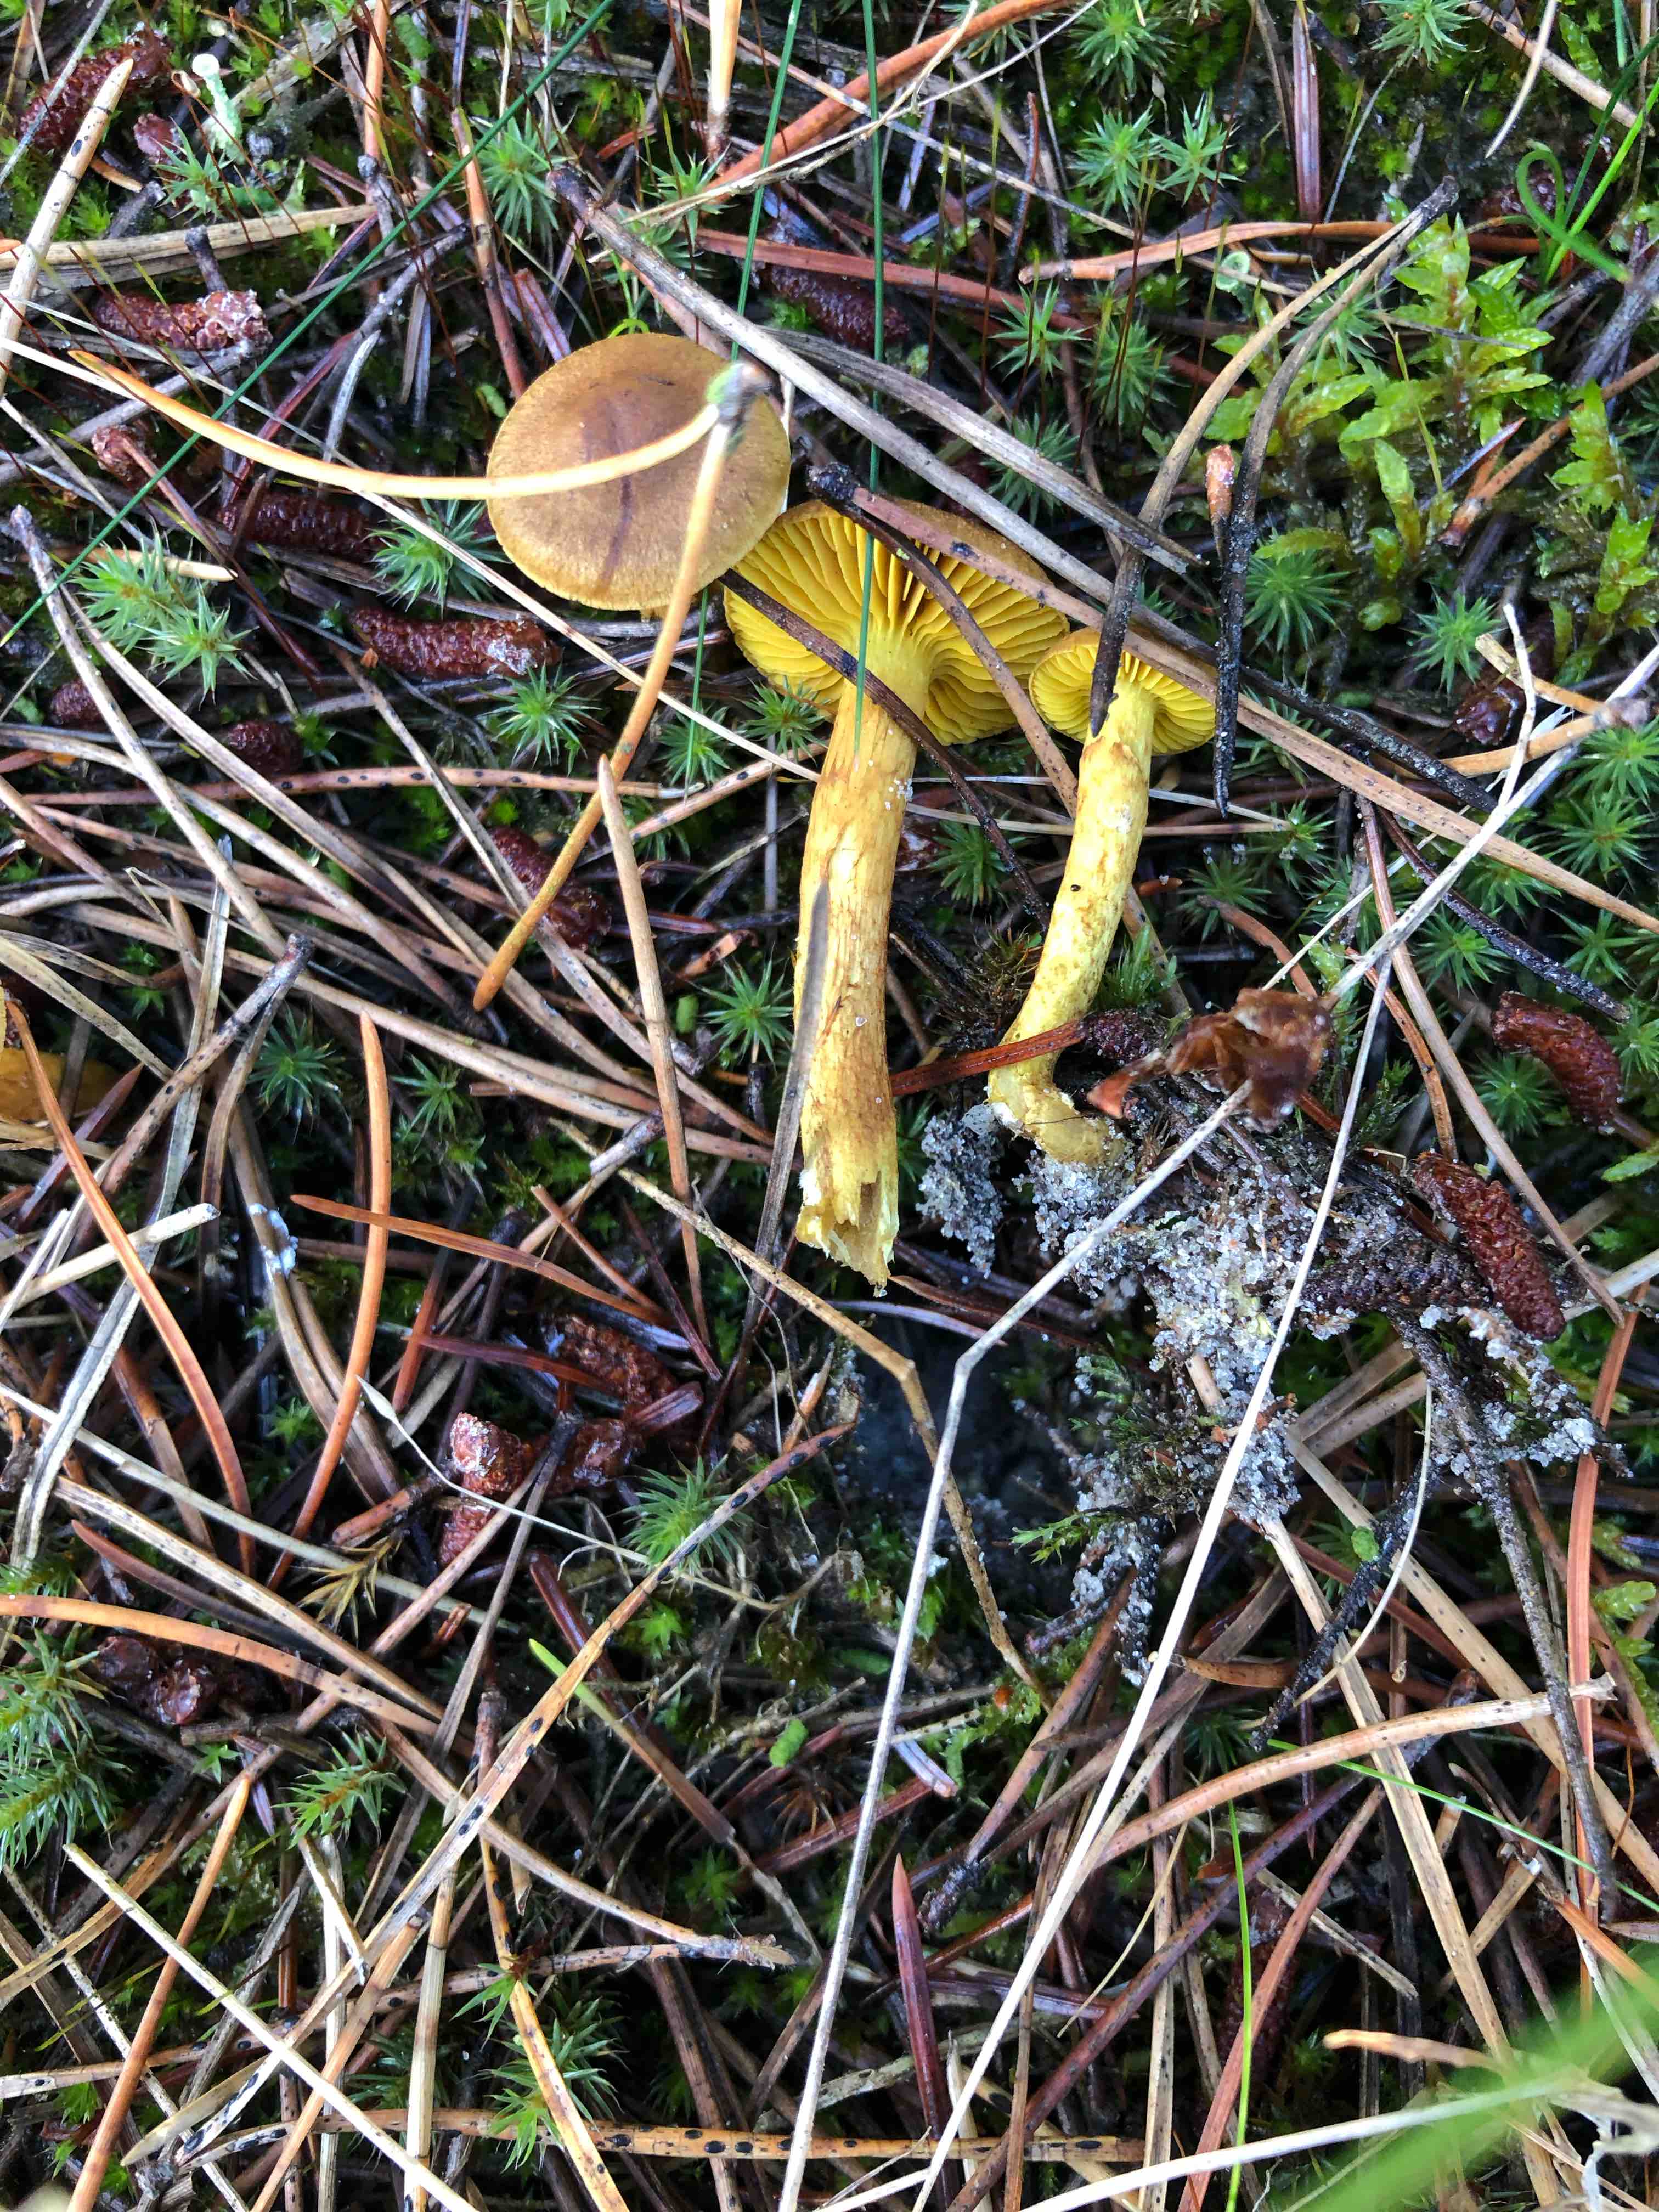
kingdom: Fungi
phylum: Basidiomycota
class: Agaricomycetes
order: Agaricales
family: Cortinariaceae
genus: Cortinarius
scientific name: Cortinarius
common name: gulbladet slørhat
